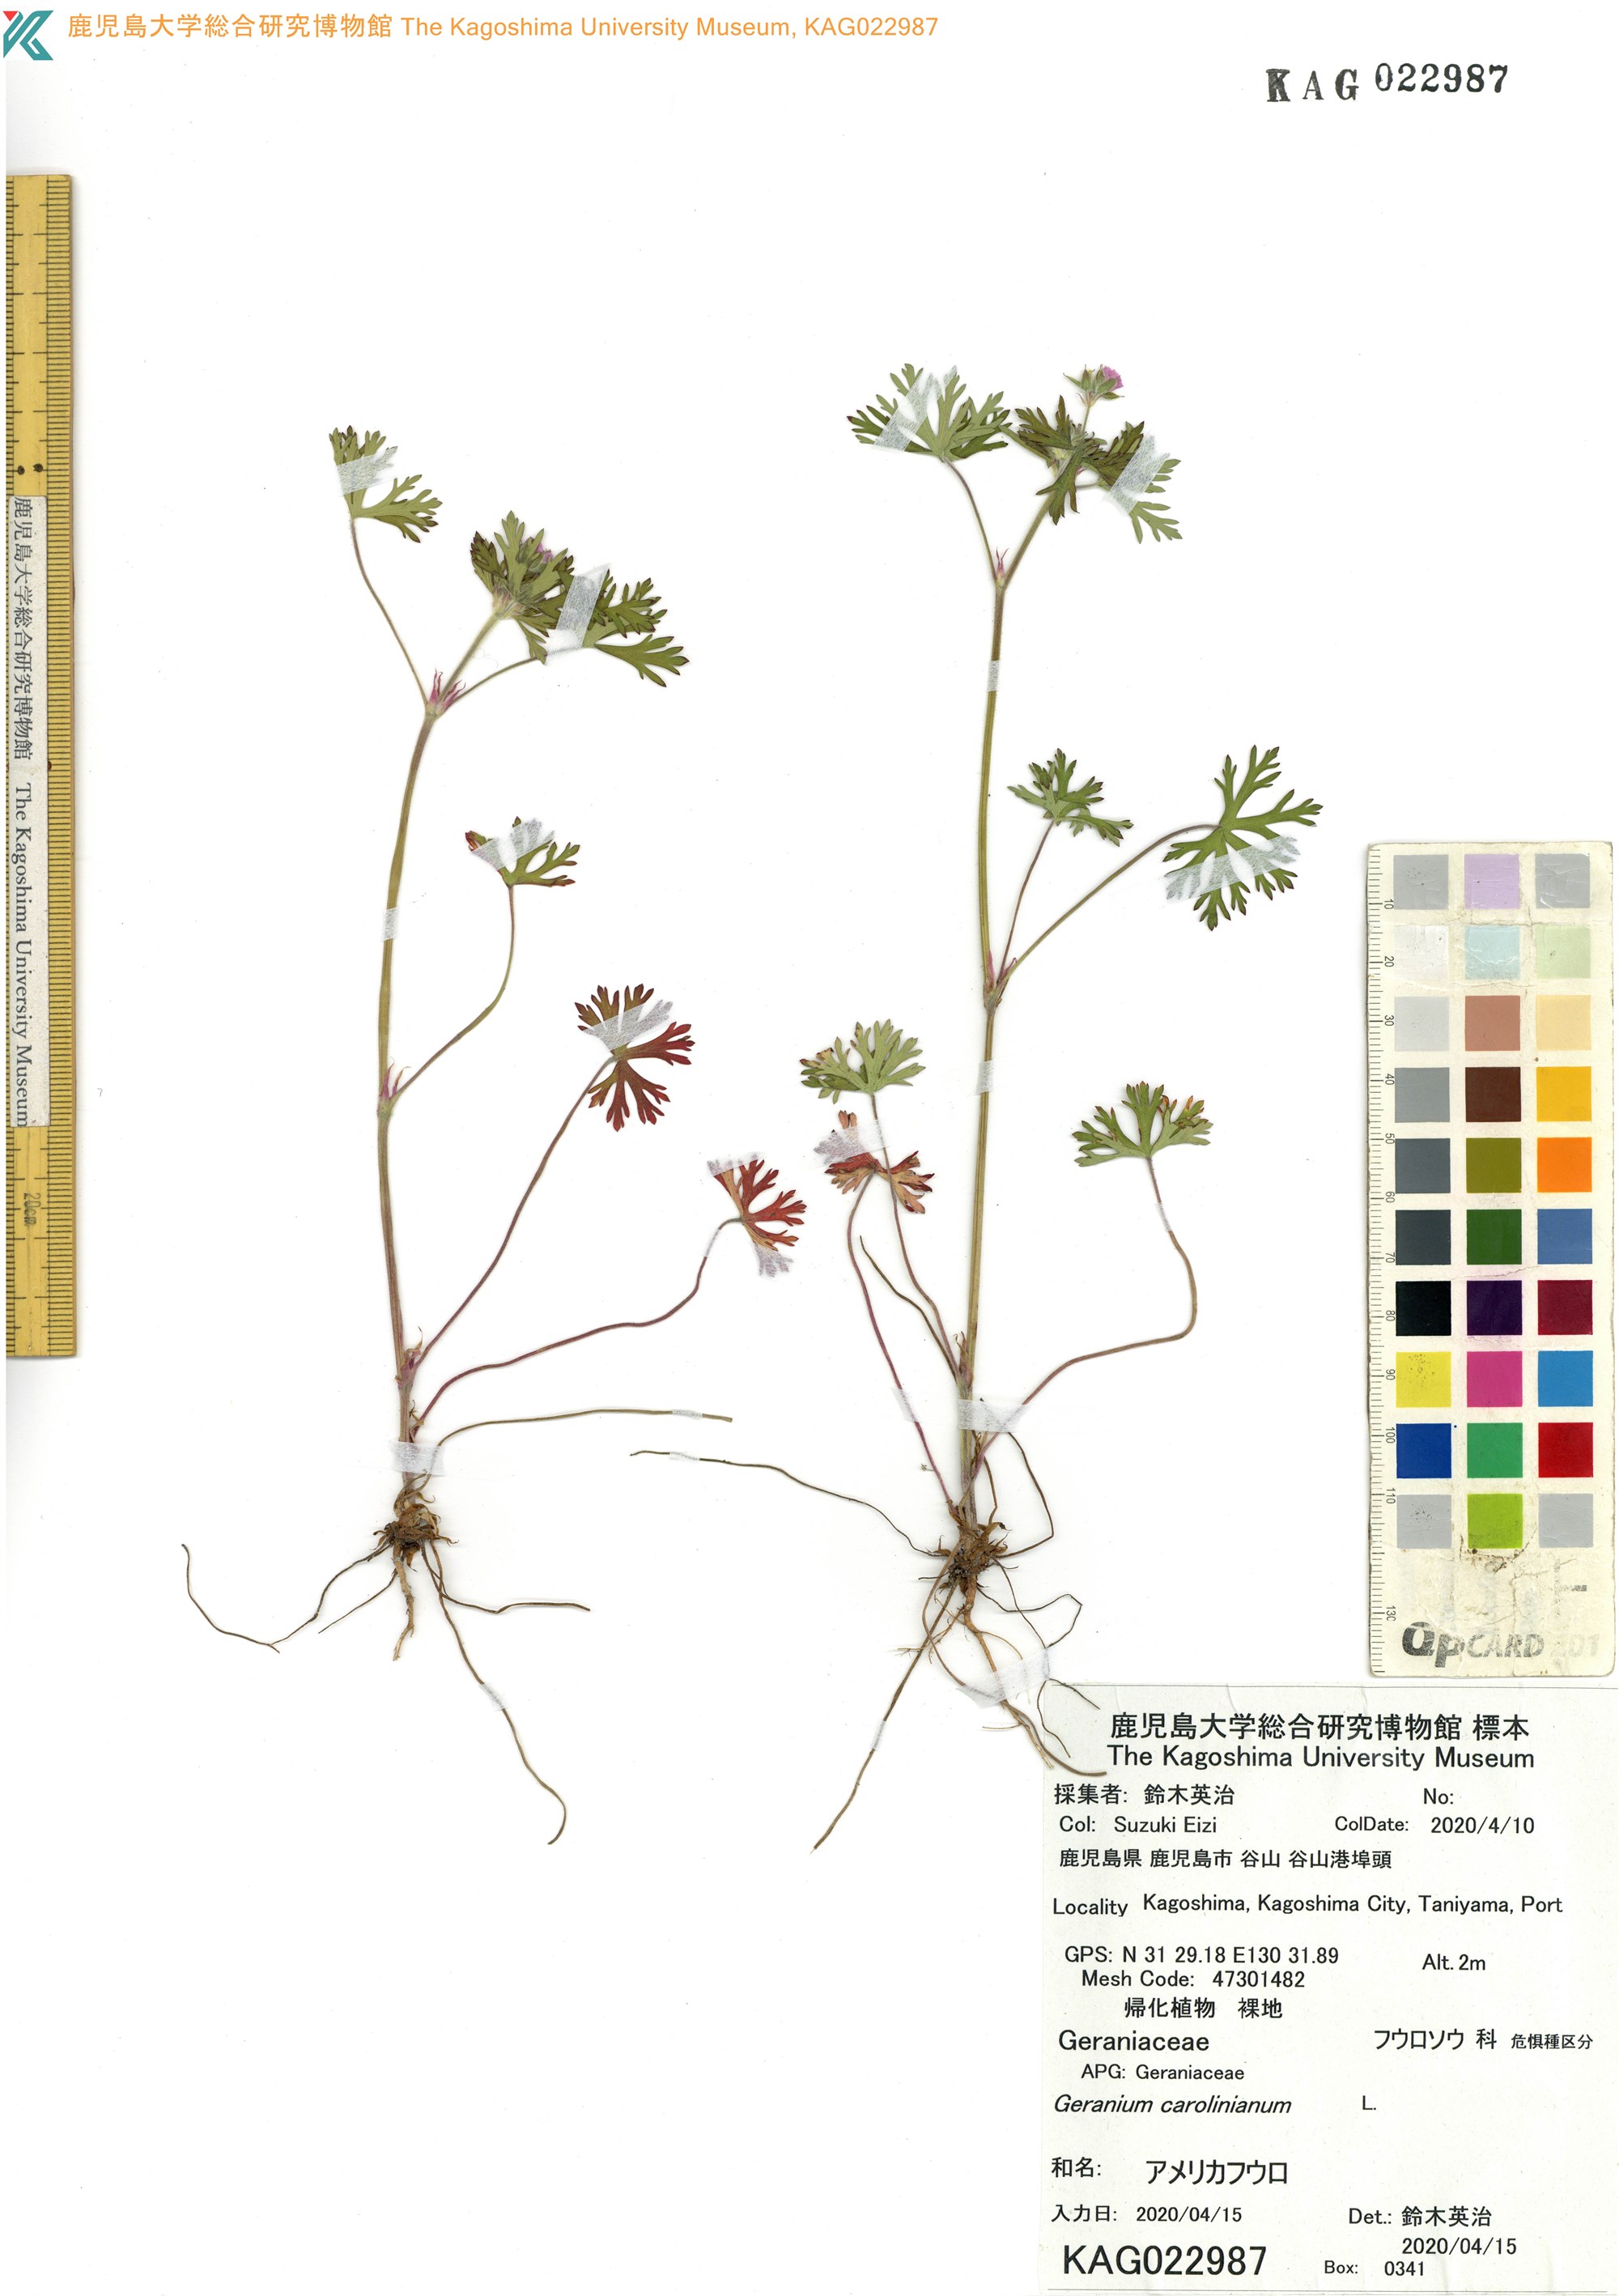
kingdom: Plantae
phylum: Tracheophyta
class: Magnoliopsida
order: Geraniales
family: Geraniaceae
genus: Geranium
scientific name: Geranium carolinianum
